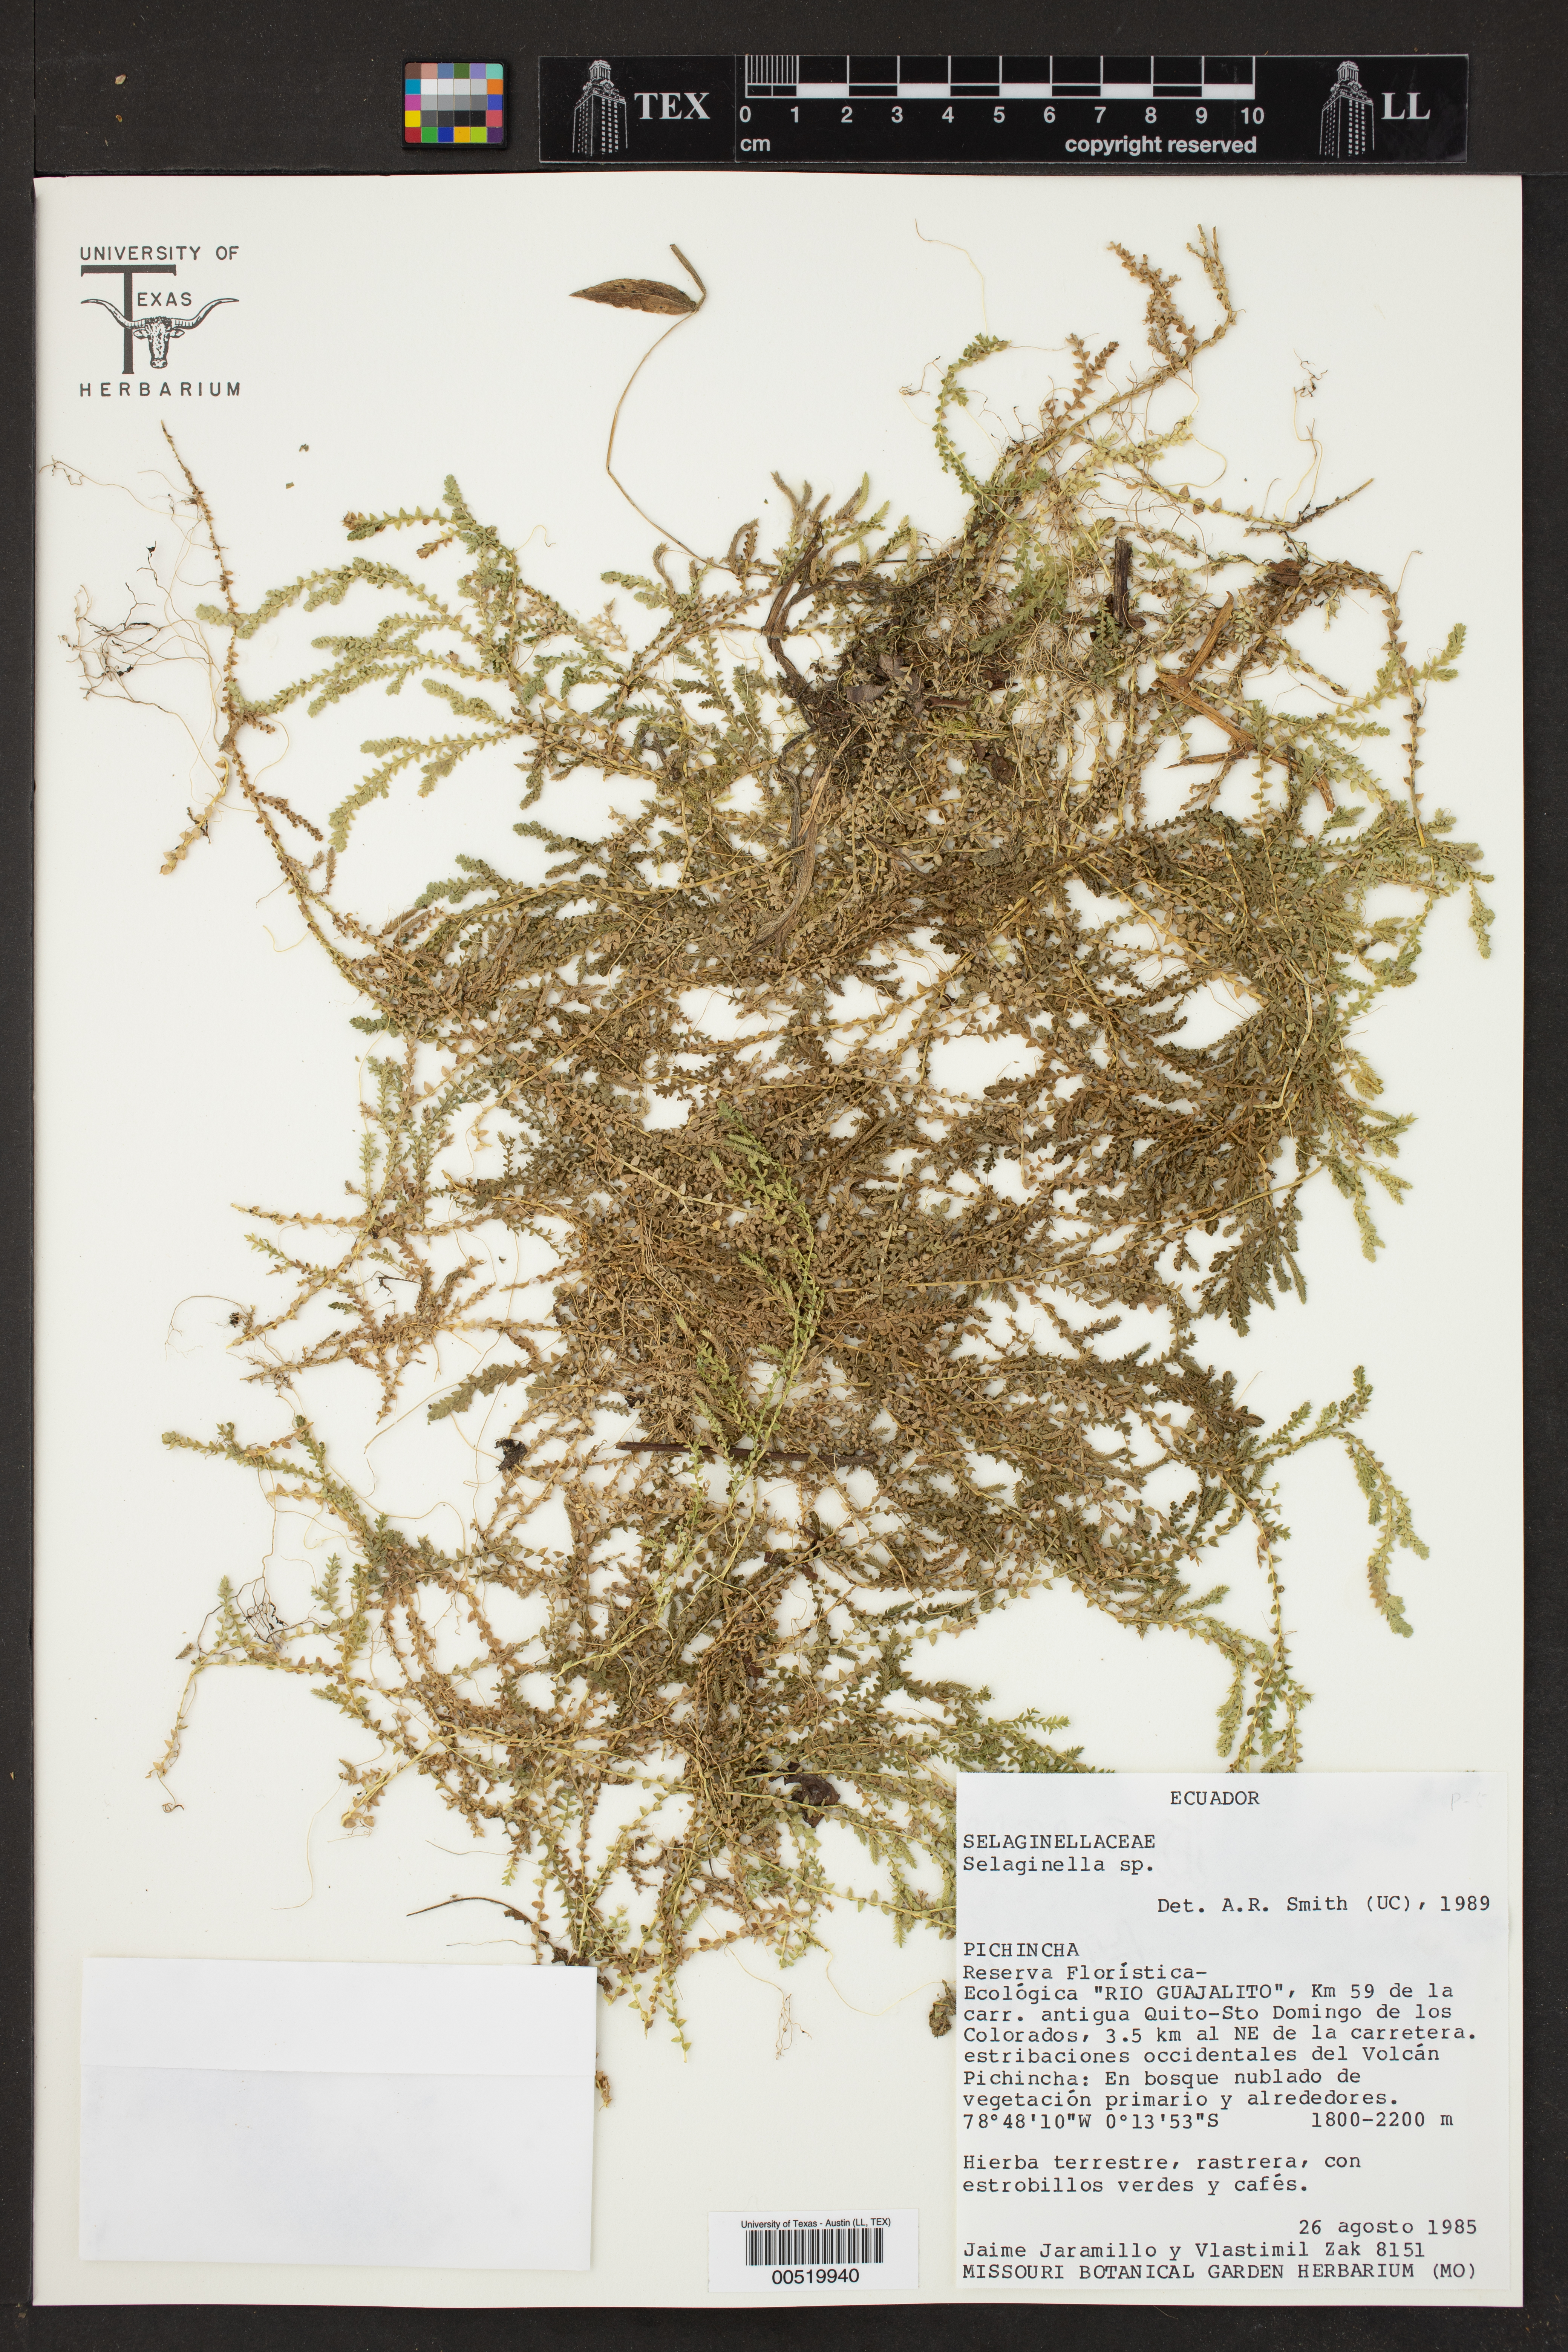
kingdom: Plantae
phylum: Tracheophyta
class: Lycopodiopsida
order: Selaginellales
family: Selaginellaceae
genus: Selaginella
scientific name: Selaginella
